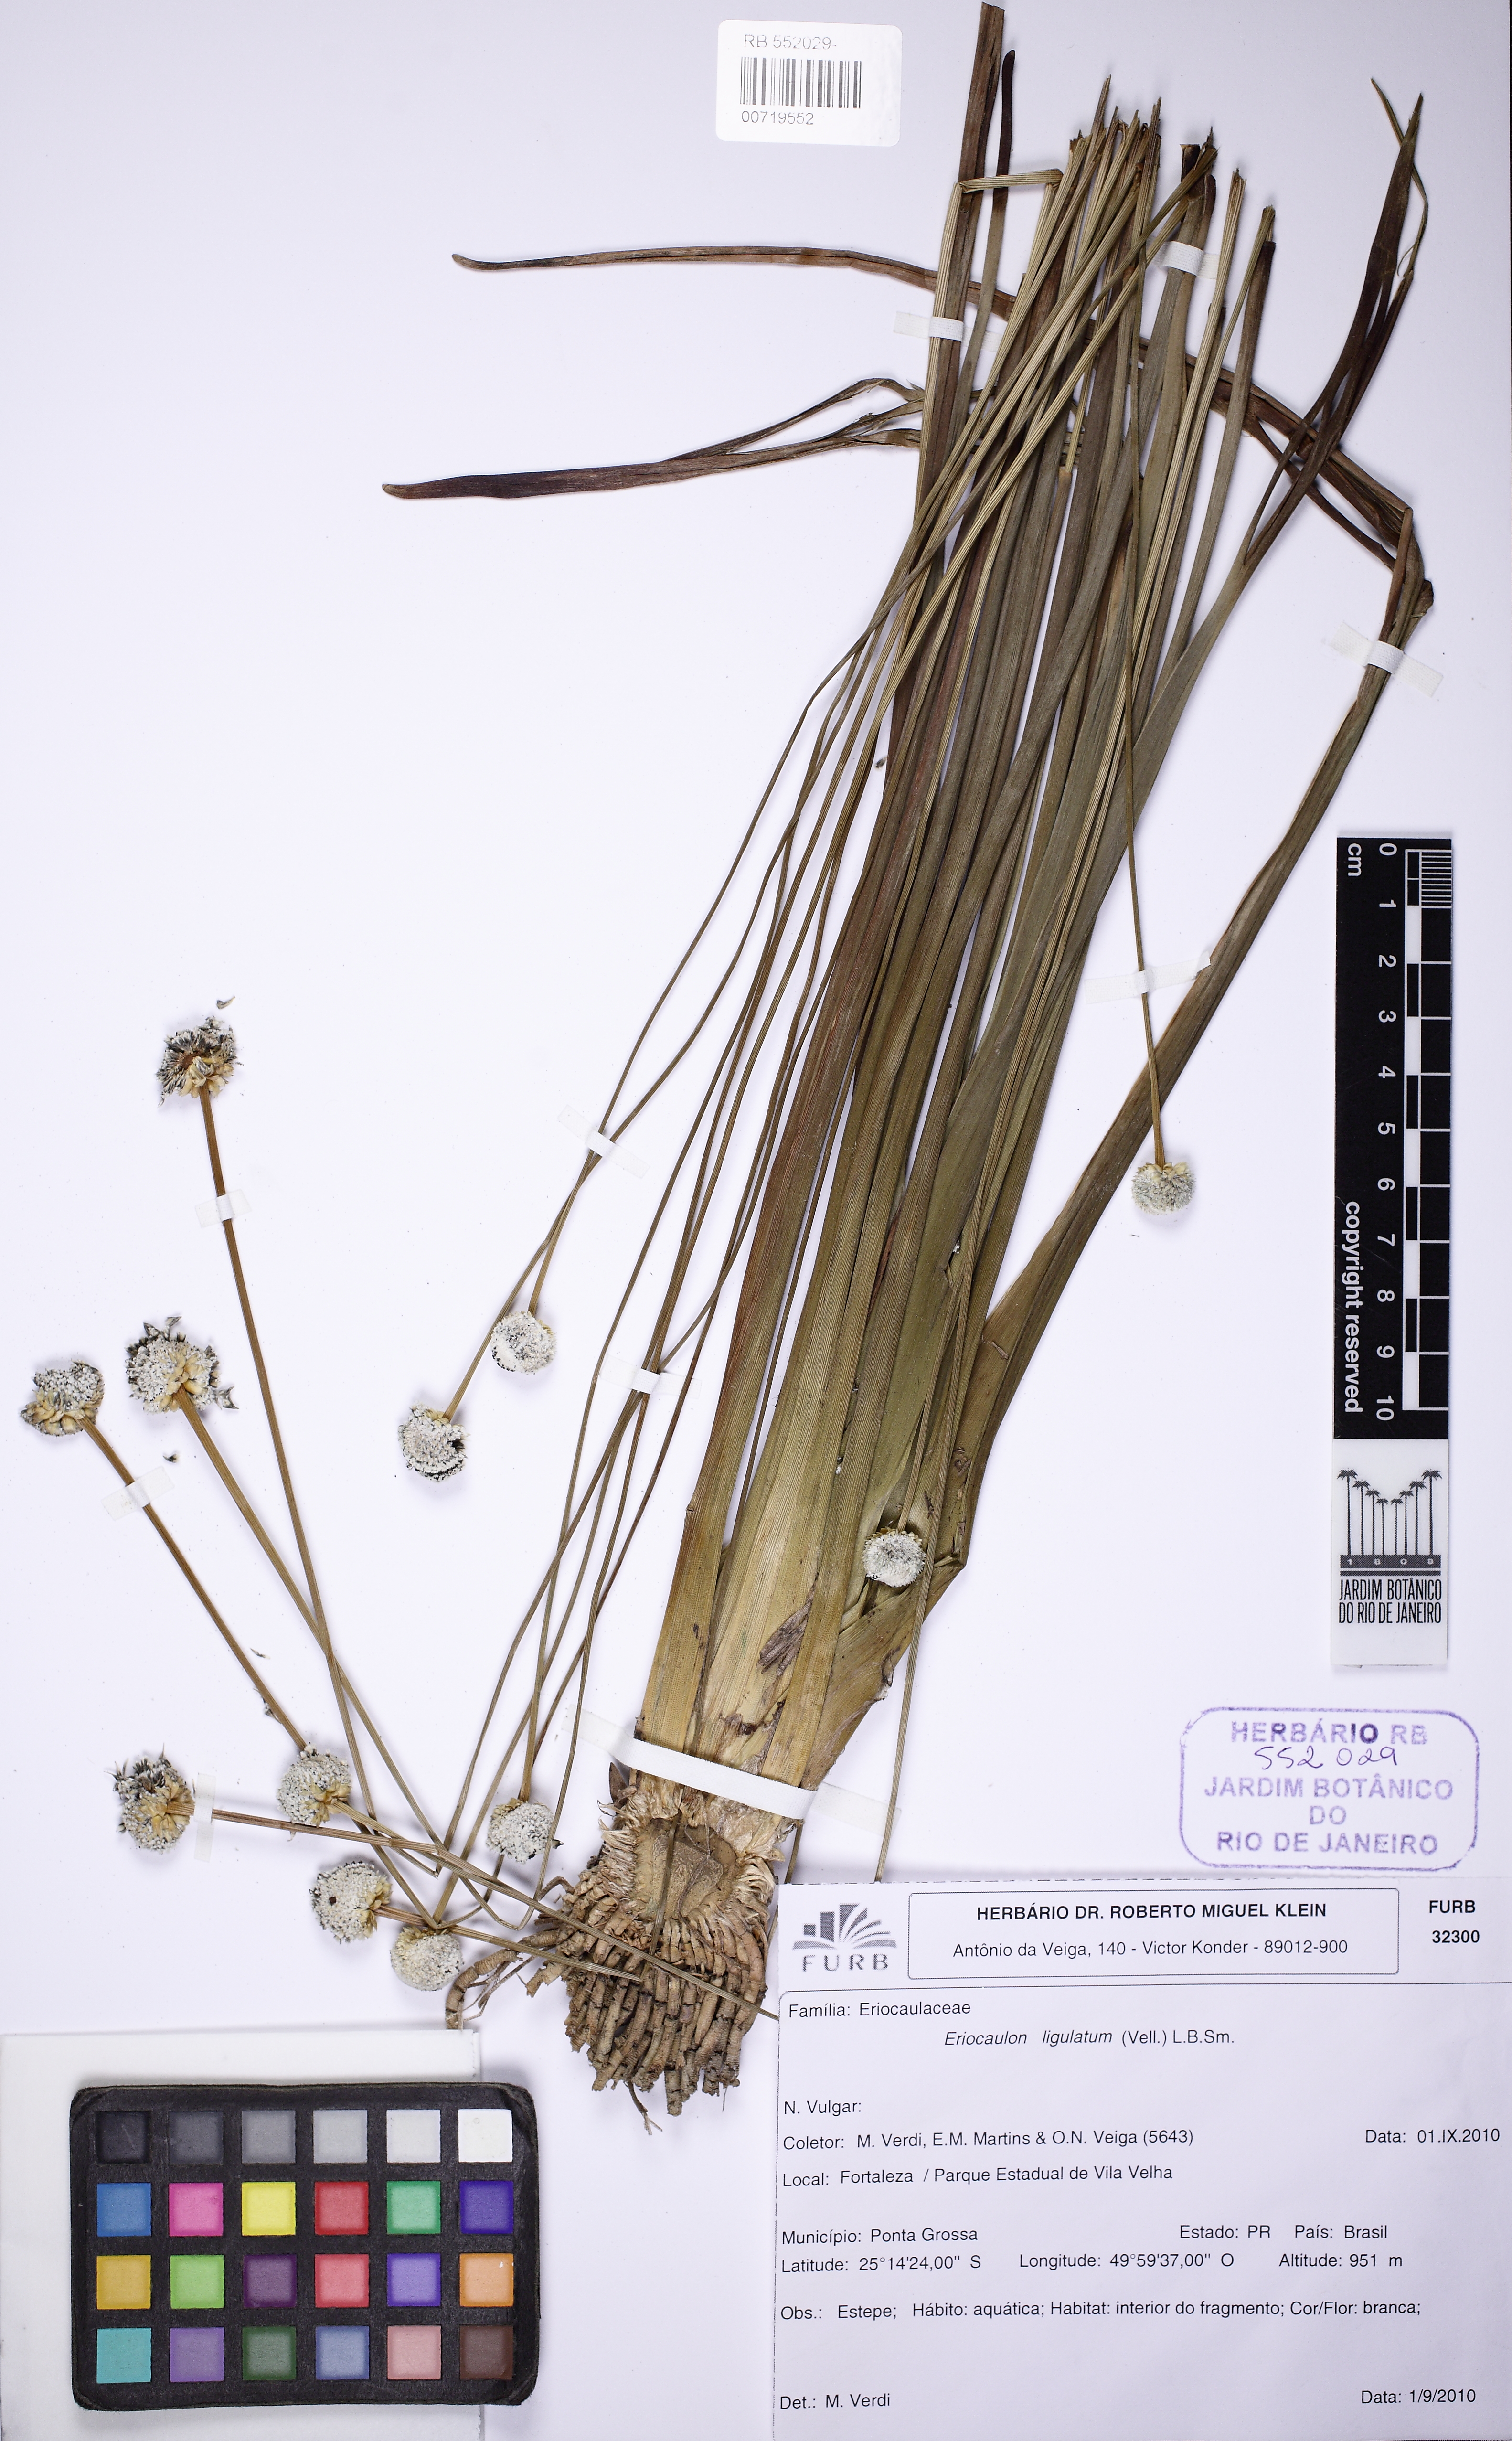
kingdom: Plantae
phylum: Tracheophyta
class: Liliopsida
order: Poales
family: Eriocaulaceae
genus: Eriocaulon
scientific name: Eriocaulon ligulatum
